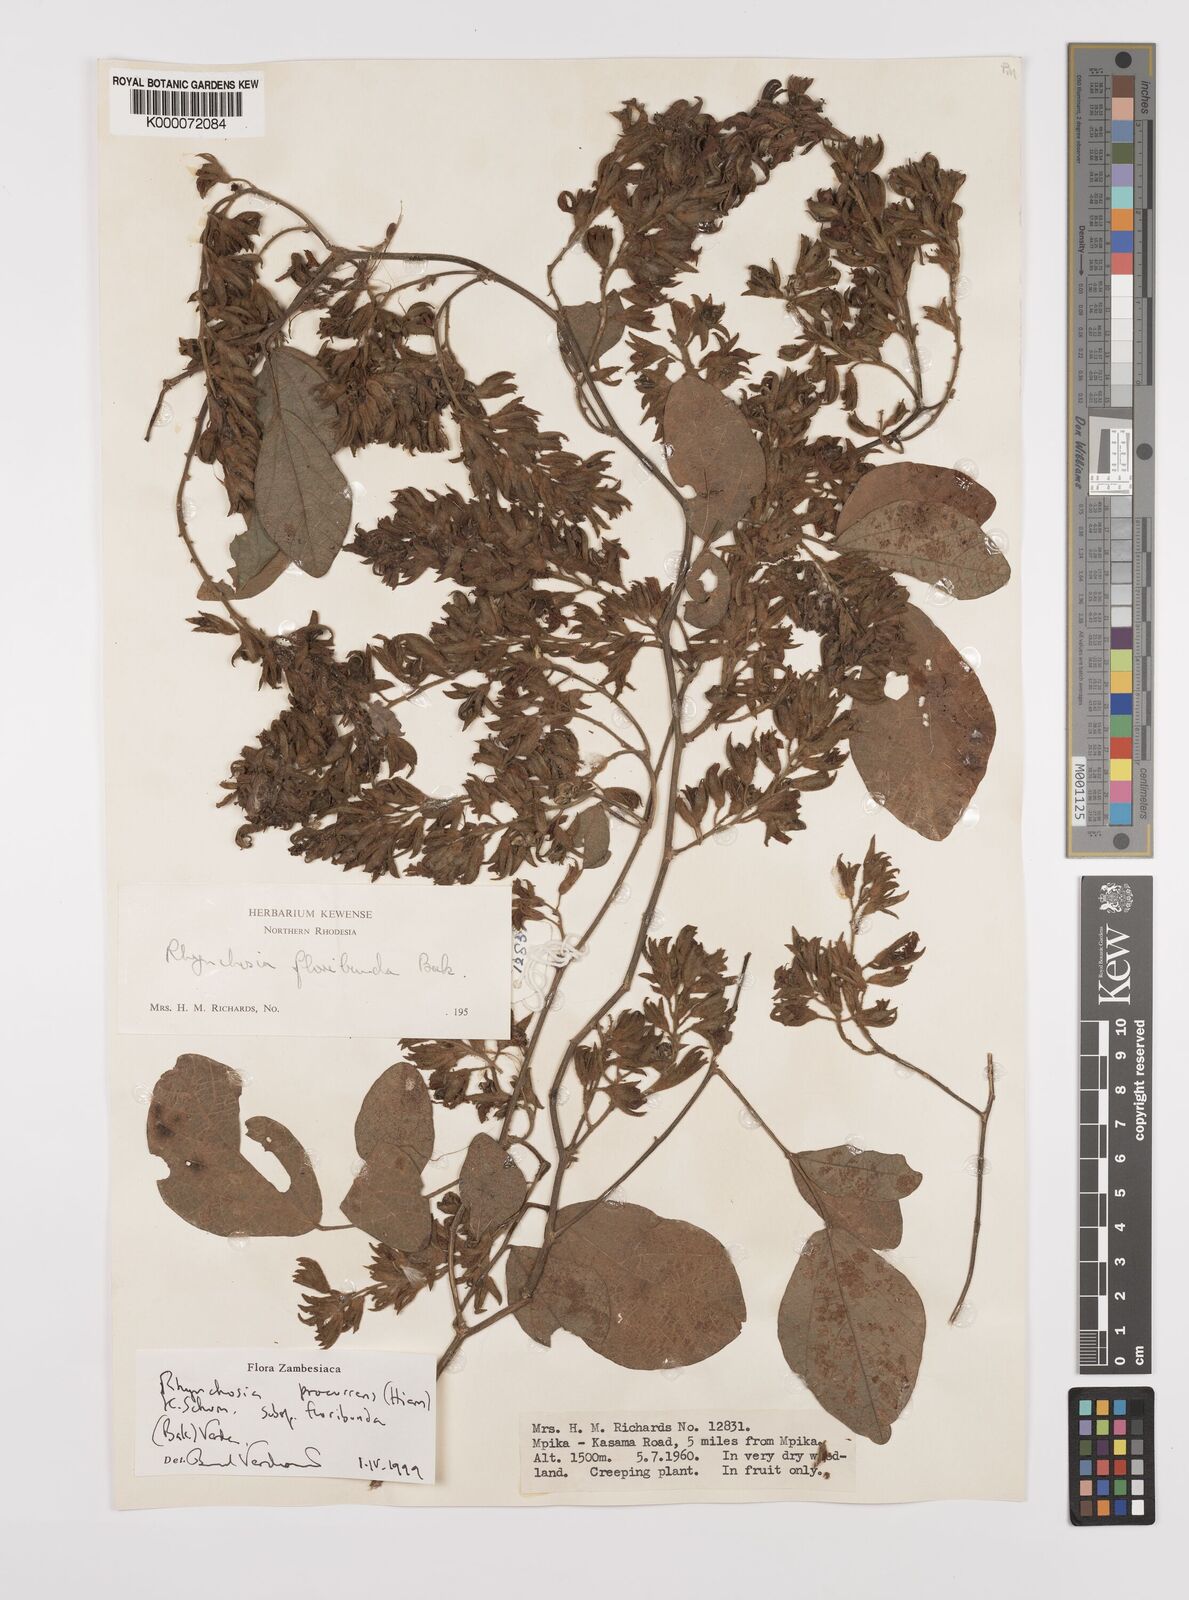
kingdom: Plantae
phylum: Tracheophyta
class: Magnoliopsida
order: Fabales
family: Fabaceae
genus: Rhynchosia
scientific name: Rhynchosia procurrens
